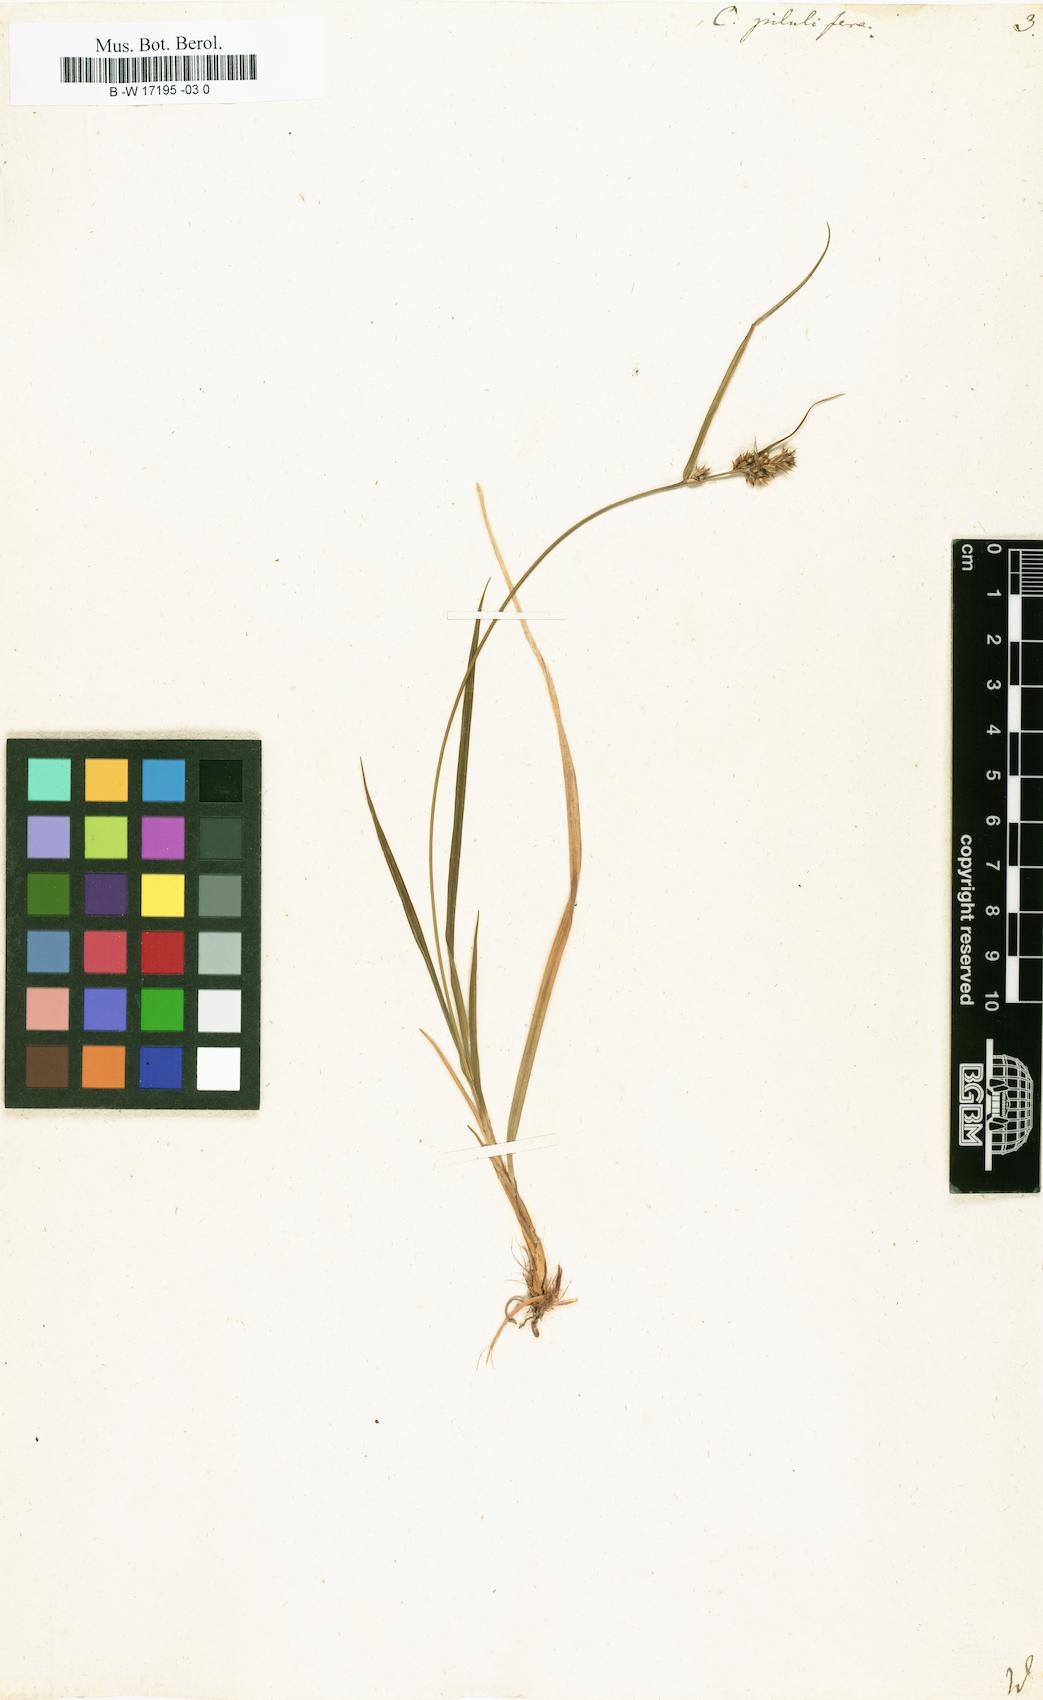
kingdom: Plantae
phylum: Tracheophyta
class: Liliopsida
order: Poales
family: Cyperaceae
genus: Carex
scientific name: Carex pilulifera
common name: Pill sedge
